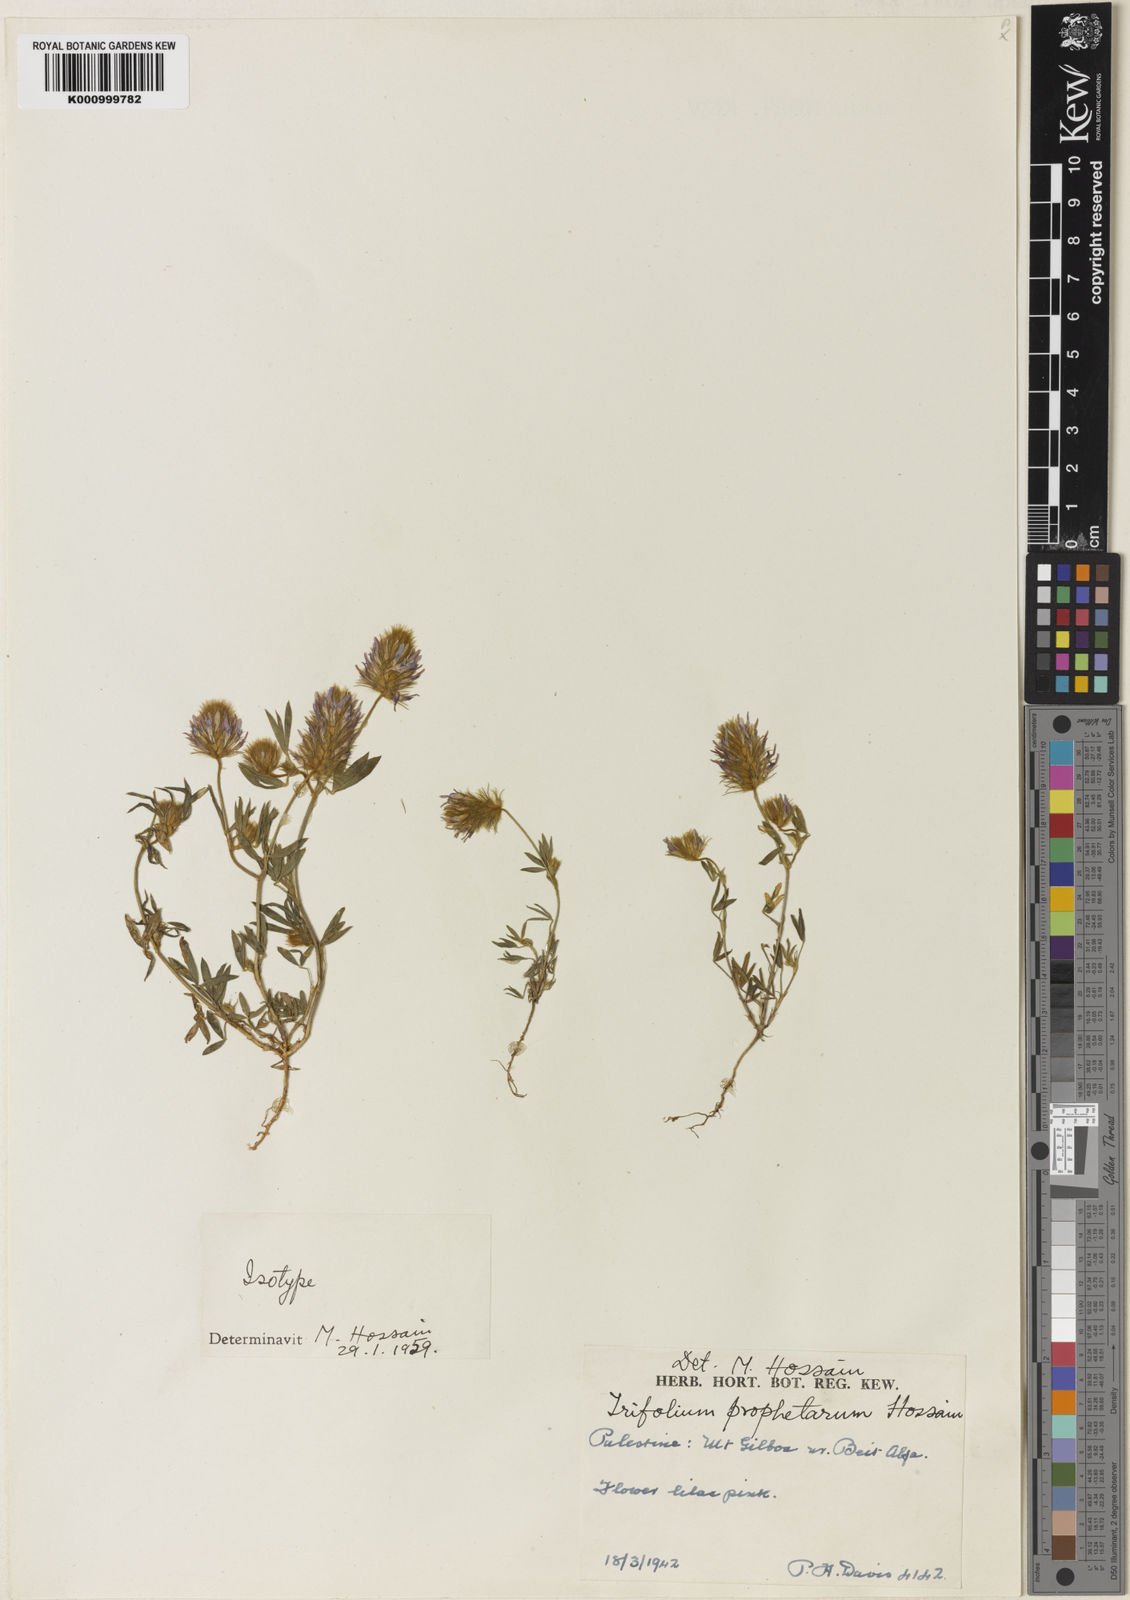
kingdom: Plantae
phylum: Tracheophyta
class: Magnoliopsida
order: Fabales
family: Fabaceae
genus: Trifolium
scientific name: Trifolium prophetarum
